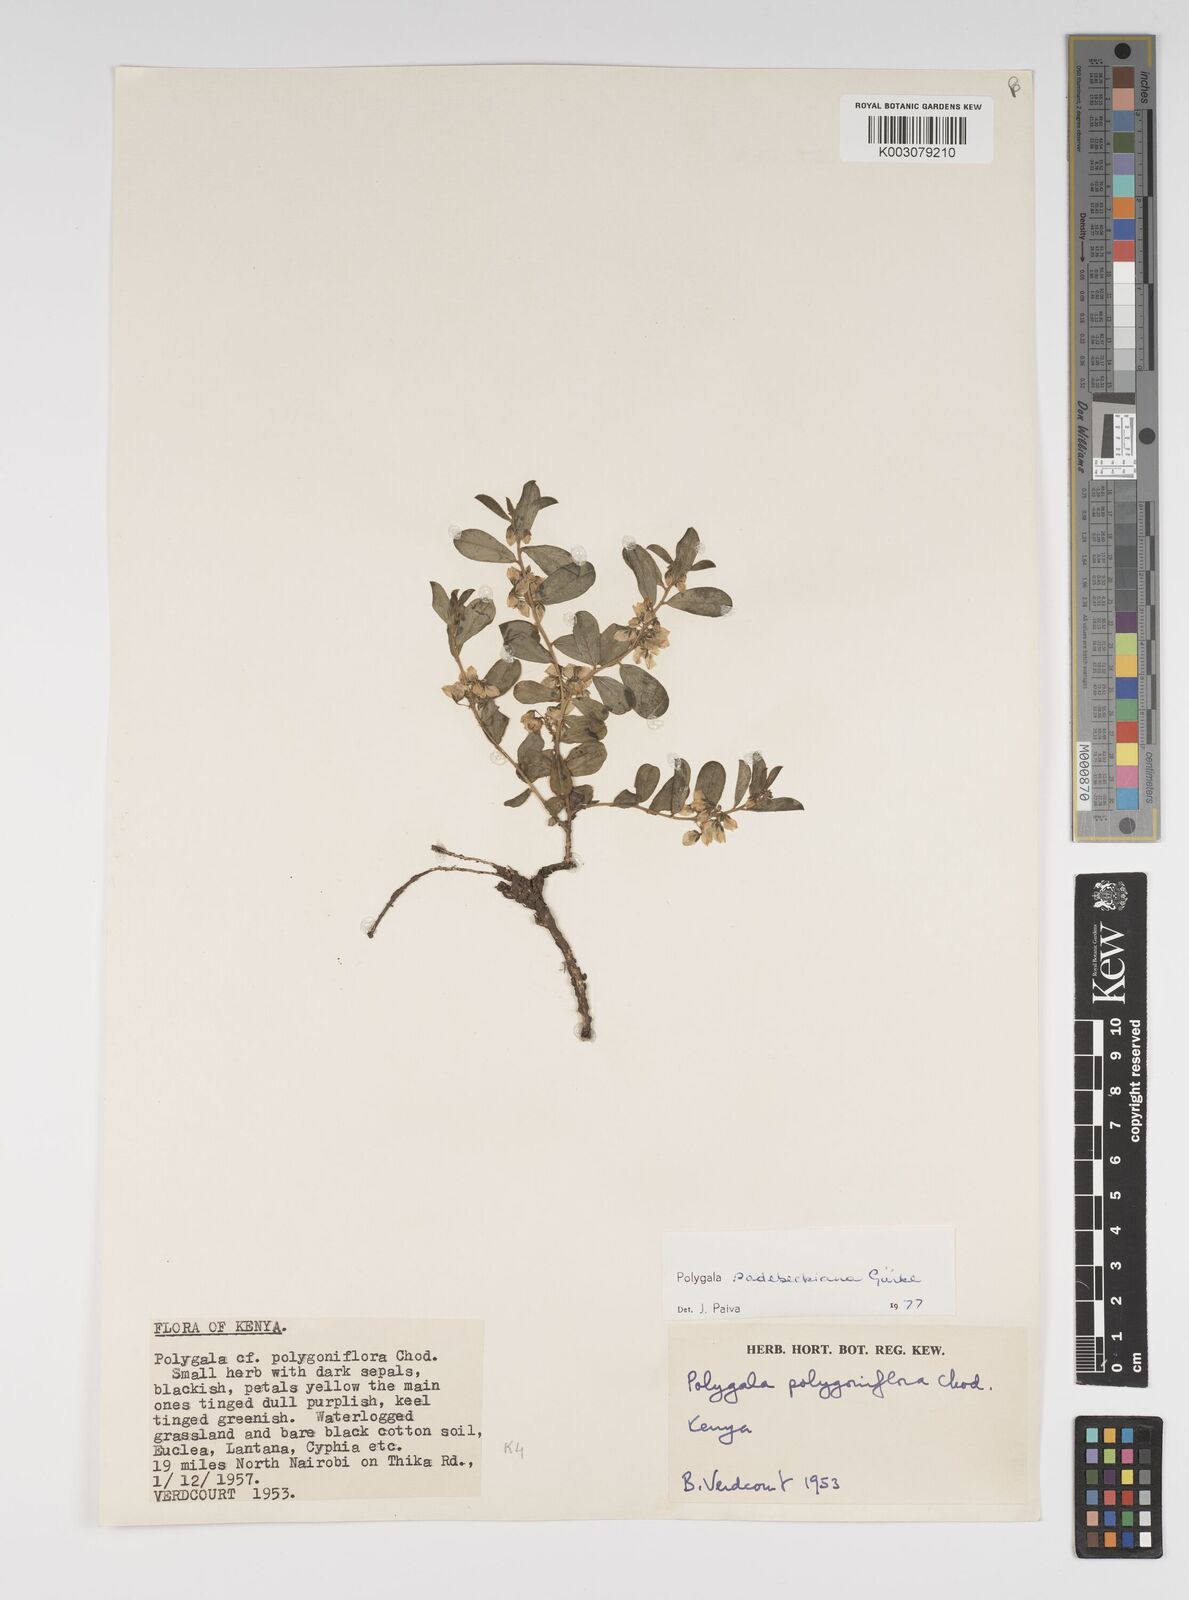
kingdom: Plantae
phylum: Tracheophyta
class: Magnoliopsida
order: Fabales
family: Polygalaceae
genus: Polygala
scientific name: Polygala sadebeckiana
